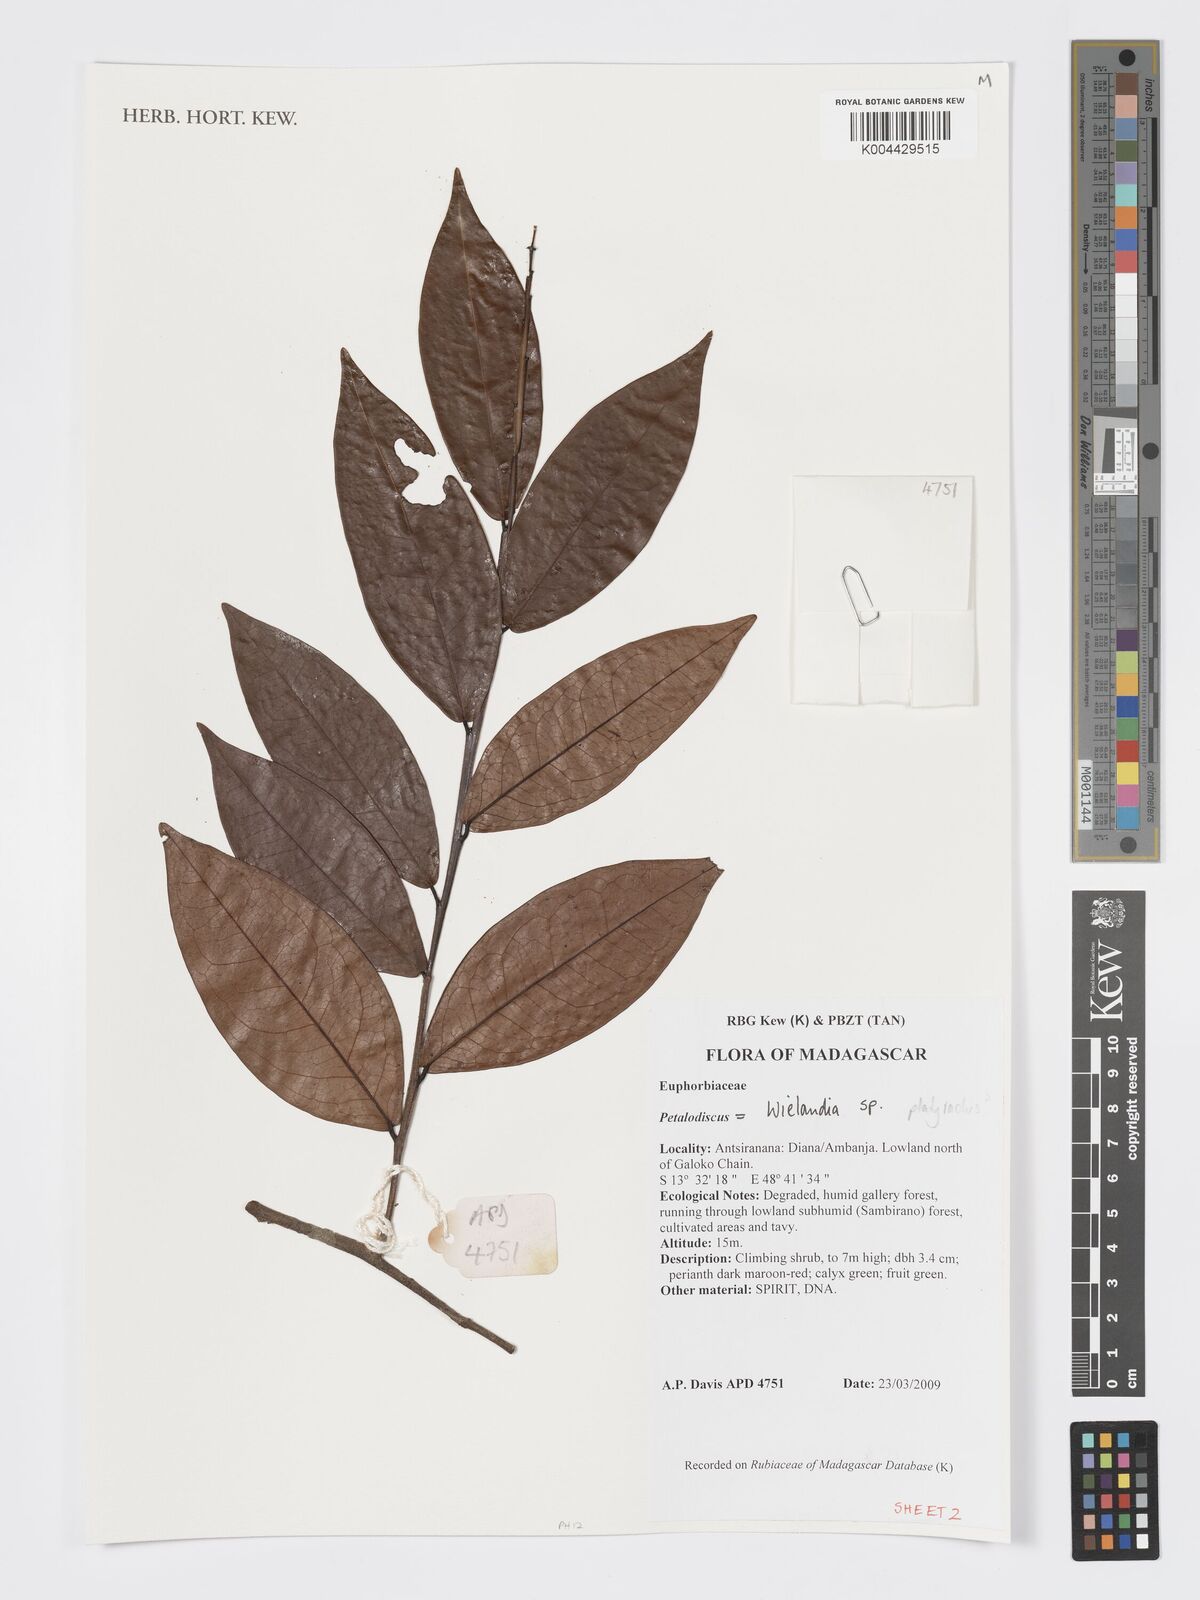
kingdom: Plantae
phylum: Tracheophyta
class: Magnoliopsida
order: Malpighiales
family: Phyllanthaceae
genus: Wielandia
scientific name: Wielandia
